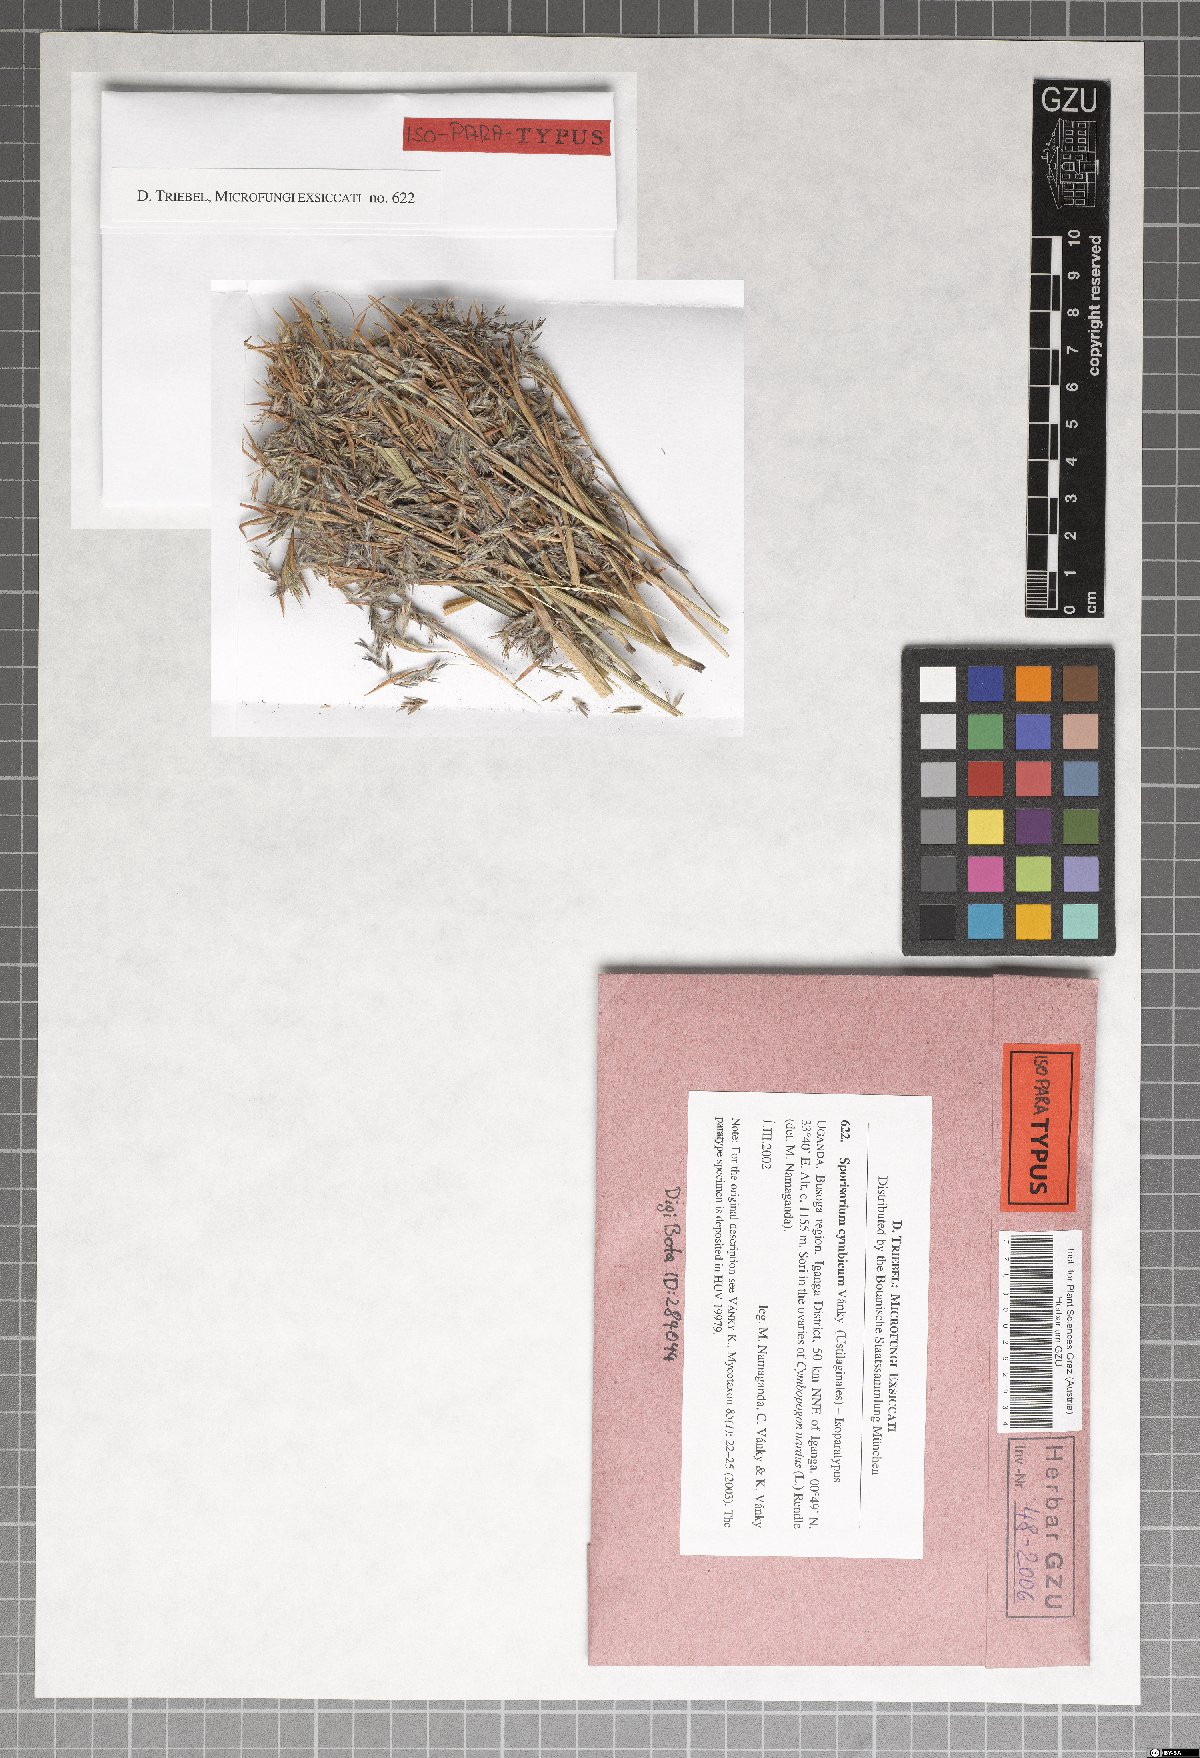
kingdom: Fungi
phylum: Basidiomycota
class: Ustilaginomycetes
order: Ustilaginales
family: Ustilaginaceae
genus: Sporisorium
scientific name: Sporisorium cymbicum
